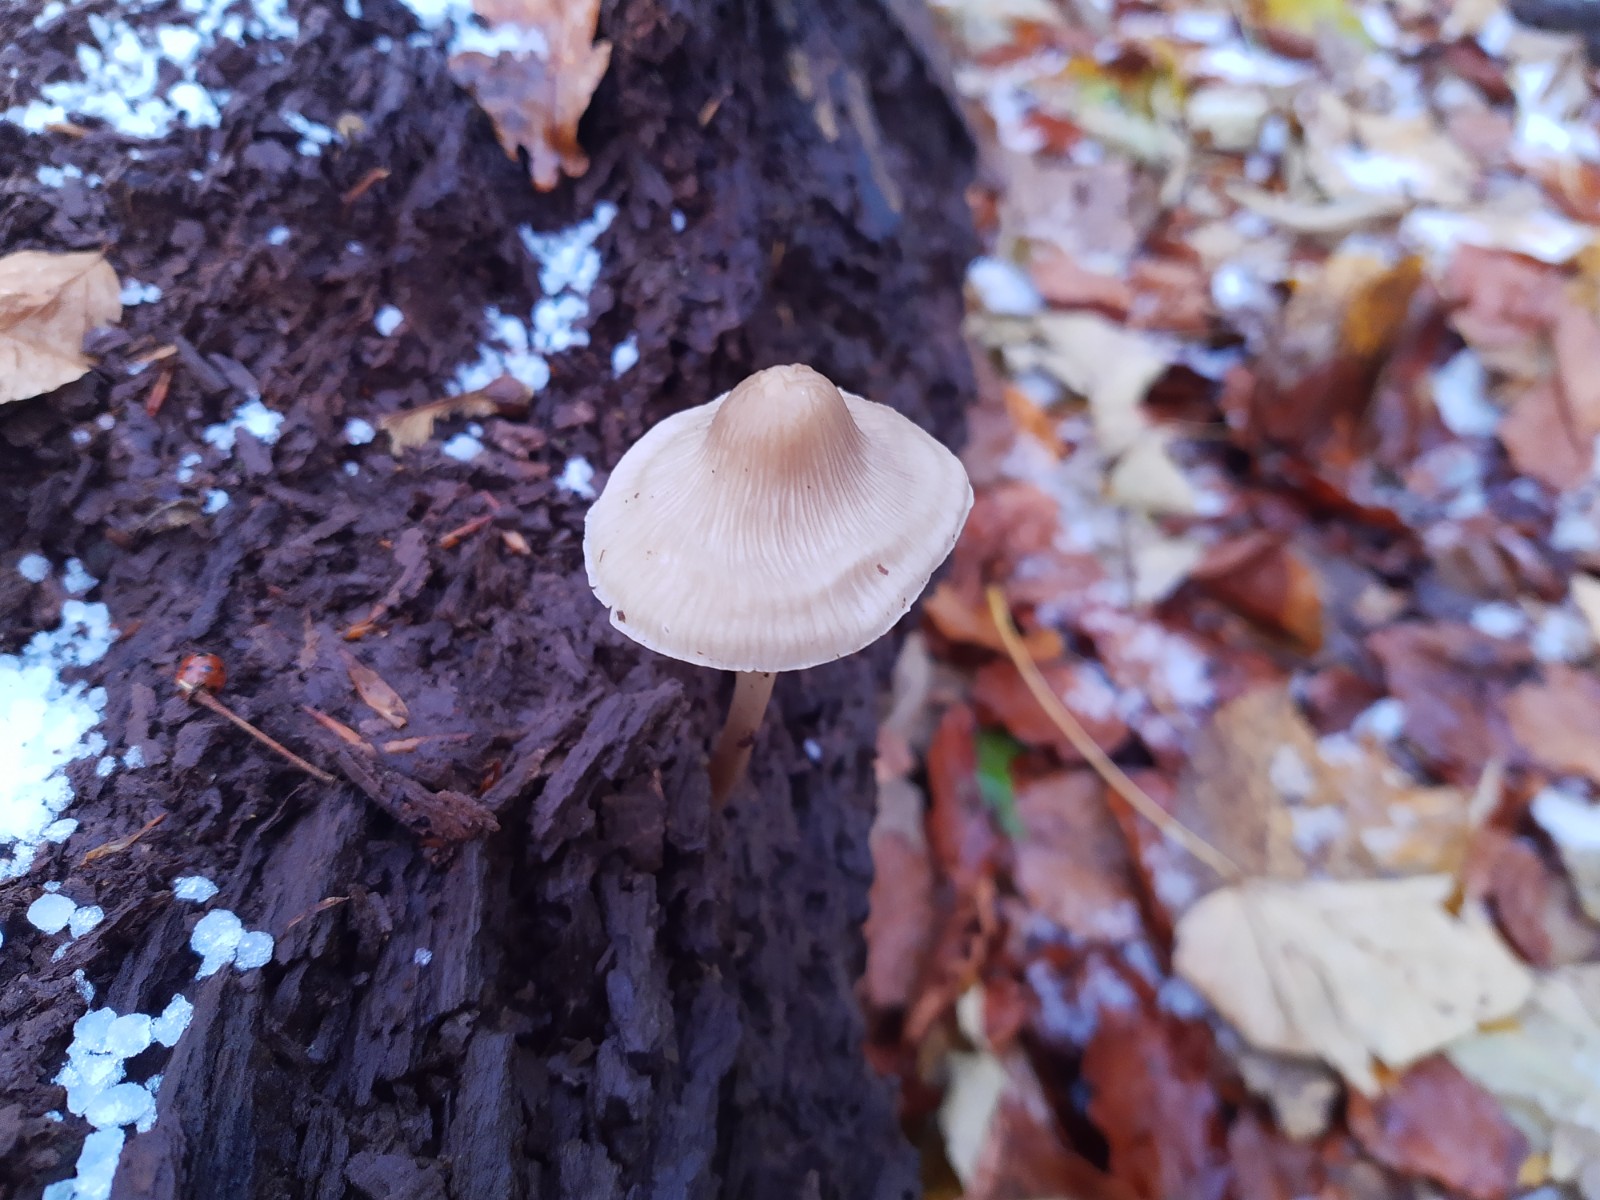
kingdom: Fungi
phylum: Basidiomycota
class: Agaricomycetes
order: Agaricales
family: Mycenaceae
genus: Mycena
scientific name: Mycena galericulata
